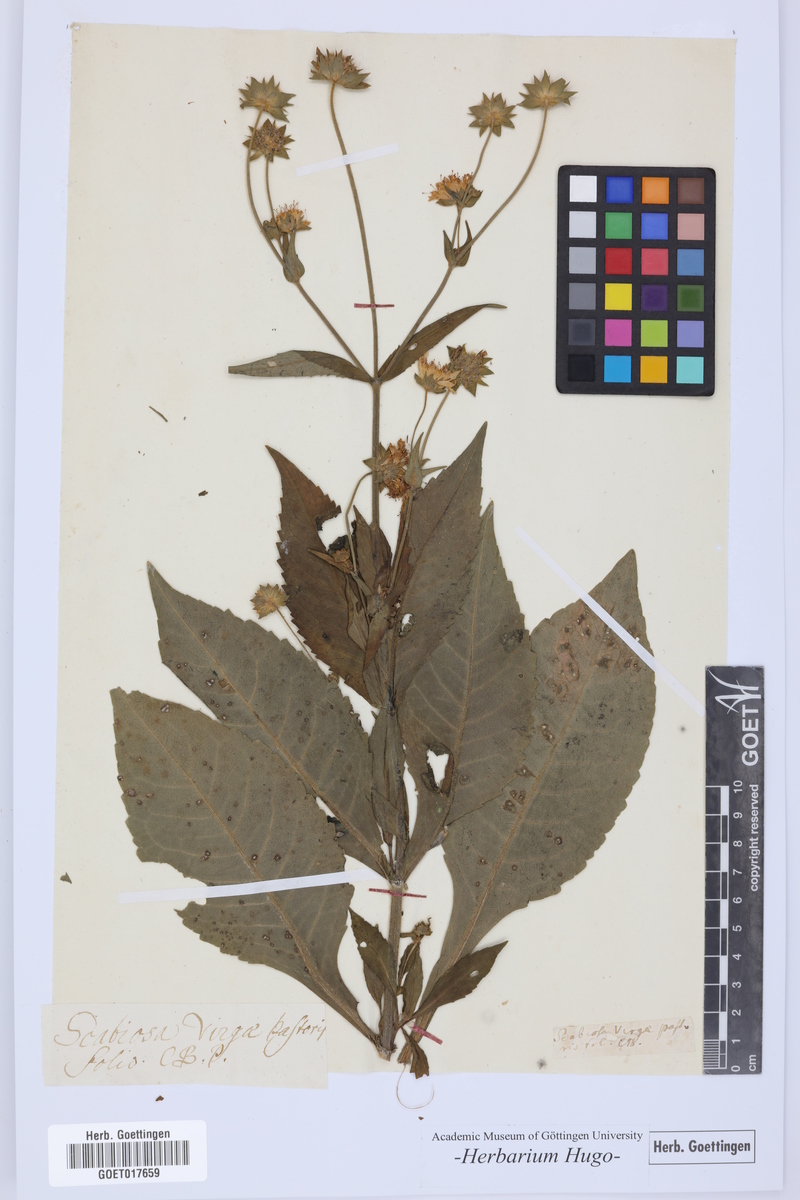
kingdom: Plantae
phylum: Tracheophyta
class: Magnoliopsida
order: Dipsacales
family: Caprifoliaceae
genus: Scabiosa
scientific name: Scabiosa
